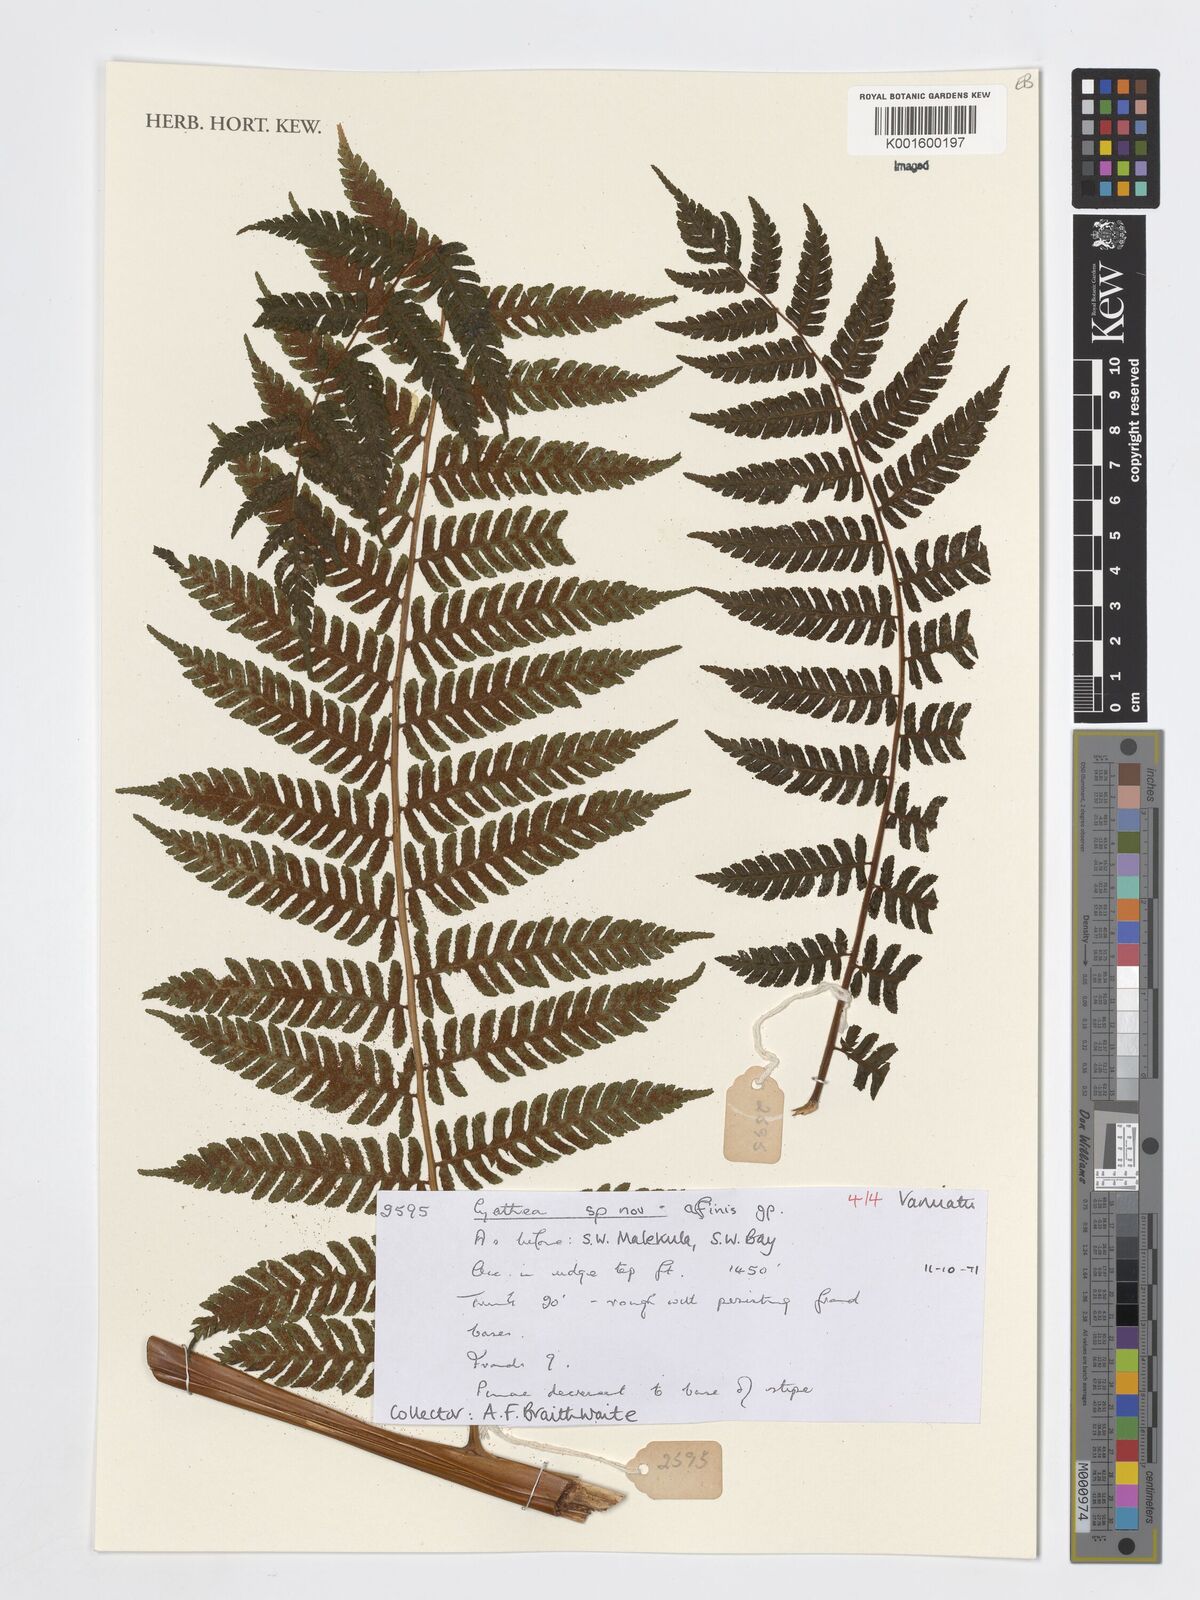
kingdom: Plantae
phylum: Tracheophyta
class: Polypodiopsida
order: Cyatheales
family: Cyatheaceae
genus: Cyathea
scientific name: Cyathea
